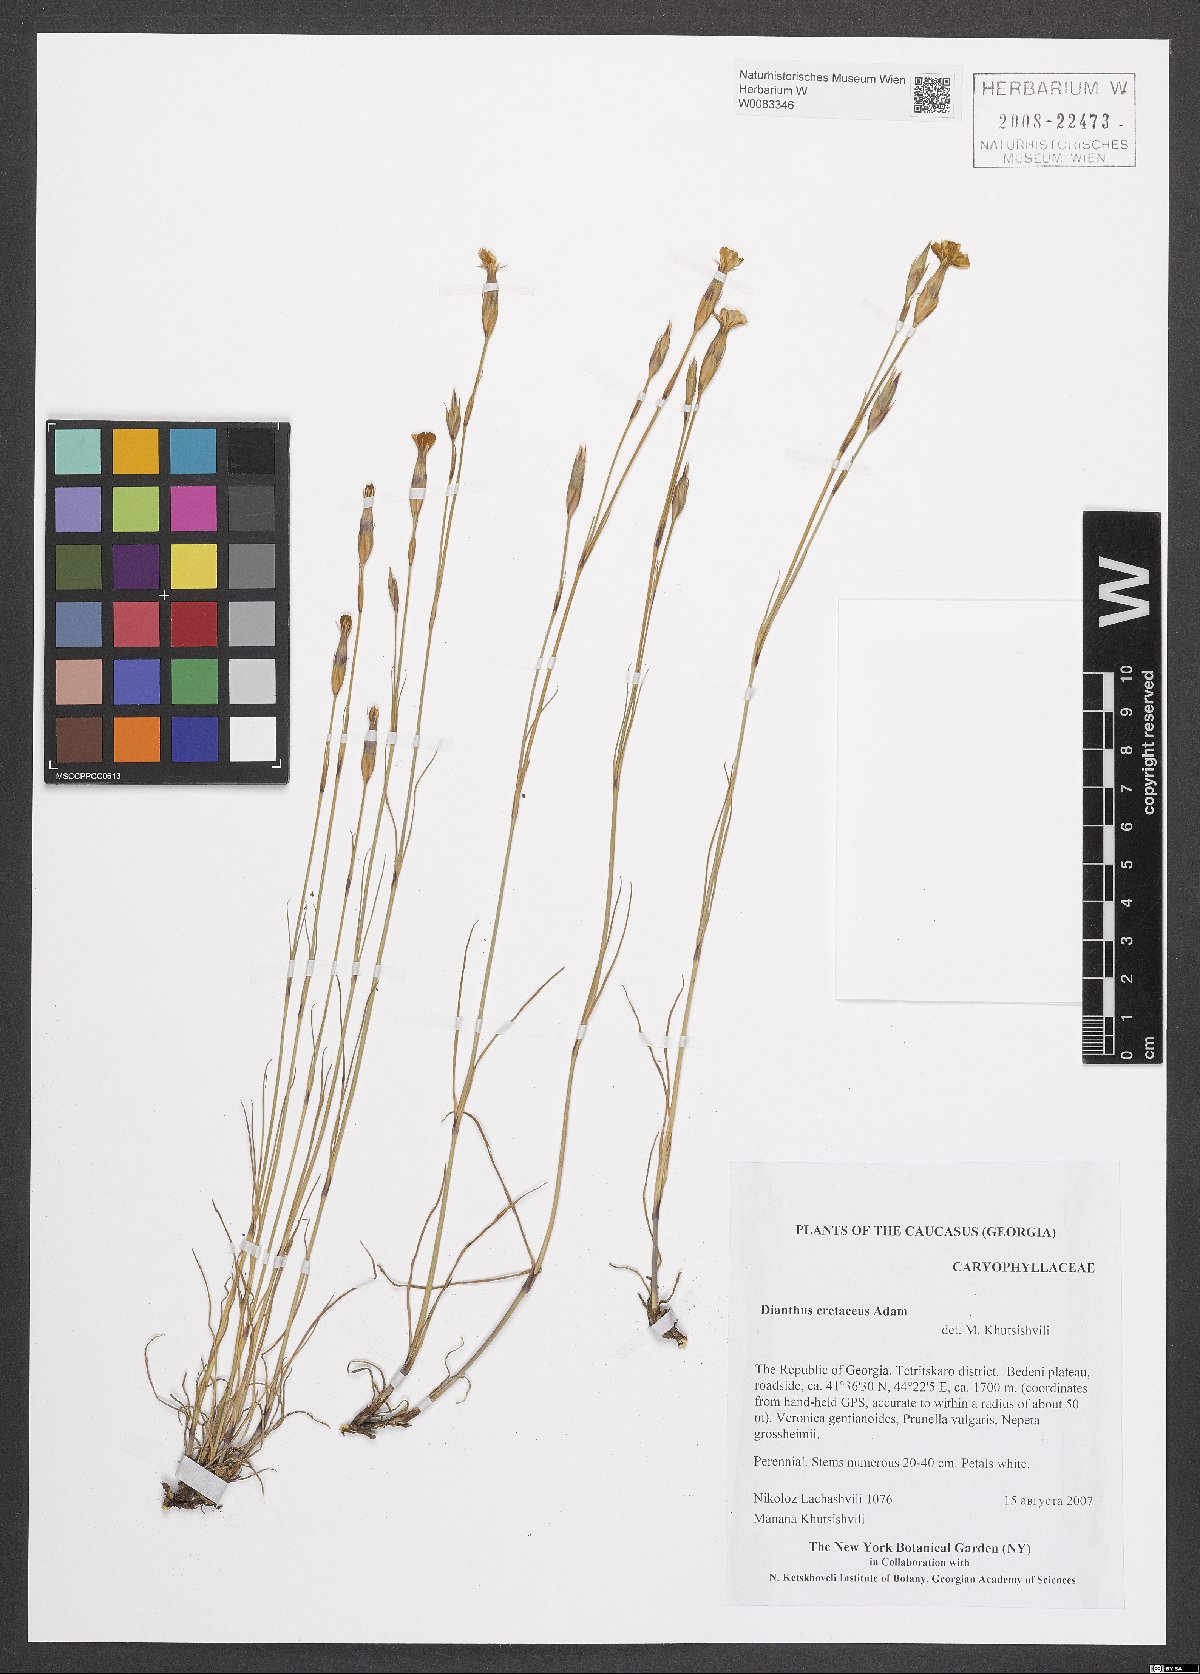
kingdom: Plantae
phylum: Tracheophyta
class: Magnoliopsida
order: Caryophyllales
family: Caryophyllaceae
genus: Dianthus
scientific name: Dianthus cretaceus
